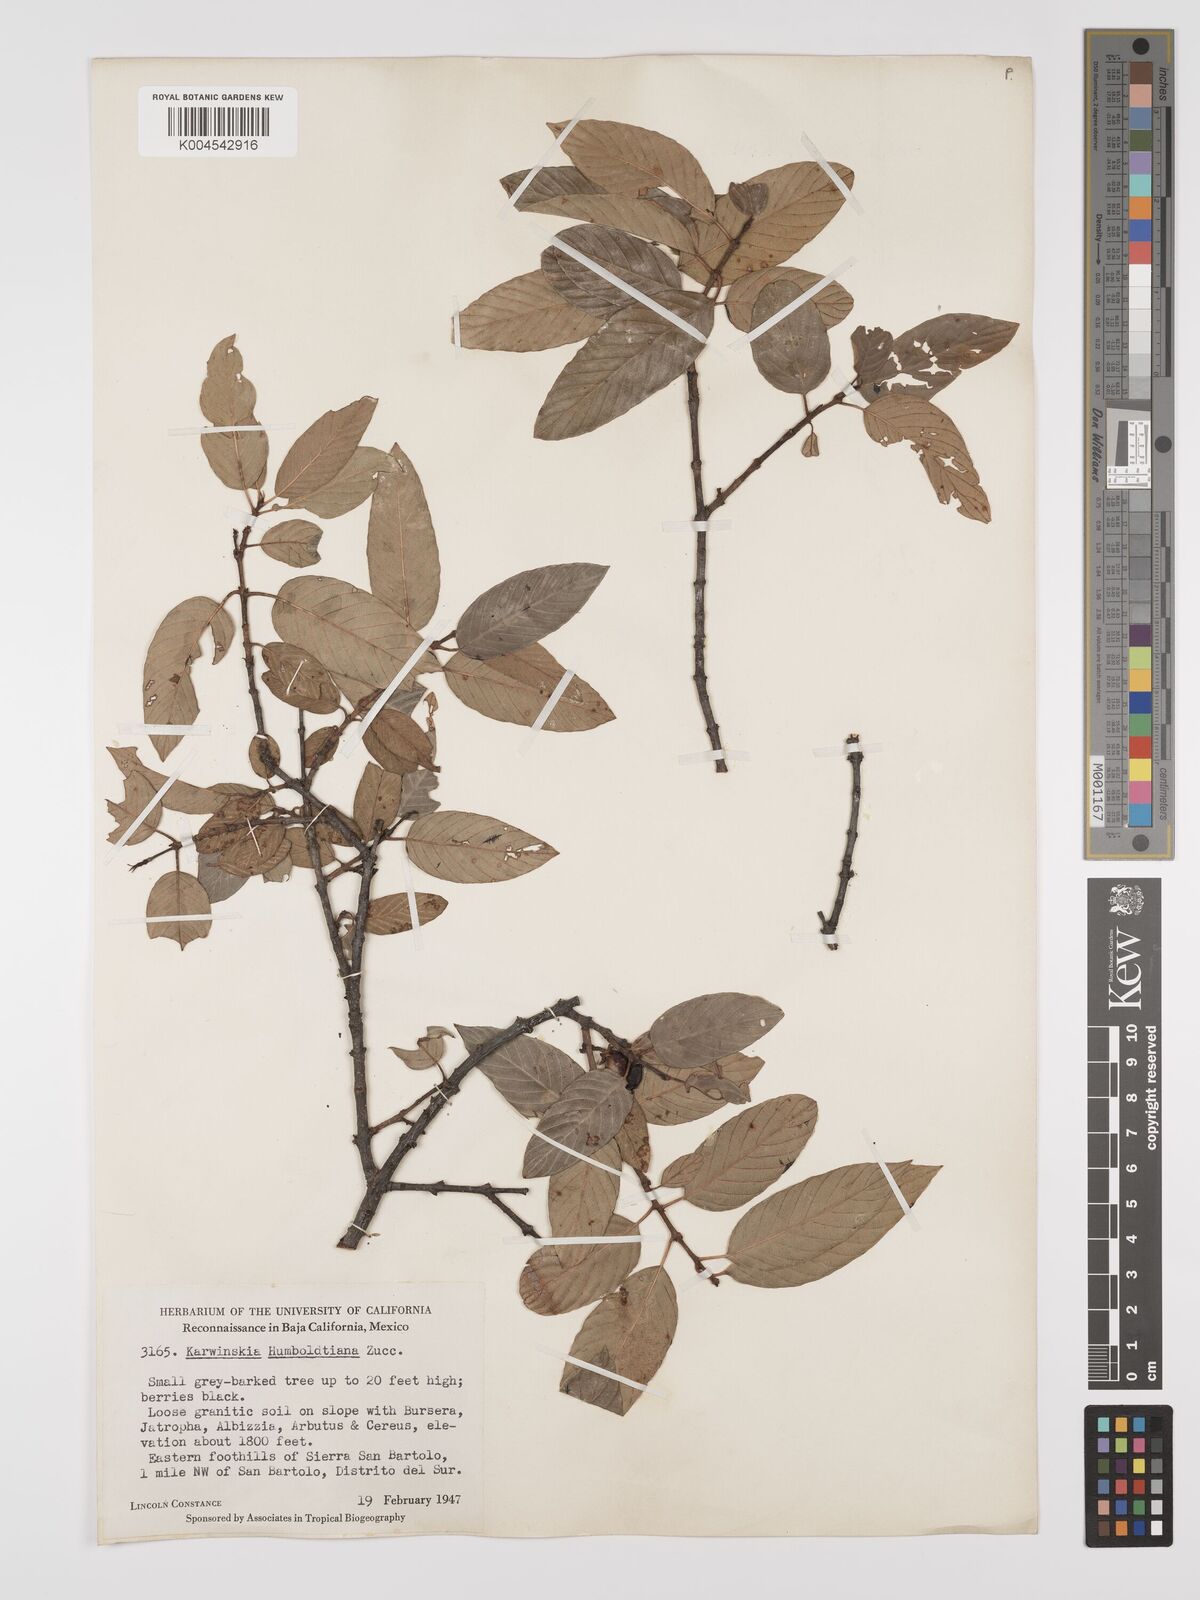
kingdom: Plantae
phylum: Tracheophyta
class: Magnoliopsida
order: Rosales
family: Rhamnaceae
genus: Karwinskia
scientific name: Karwinskia humboldtiana
